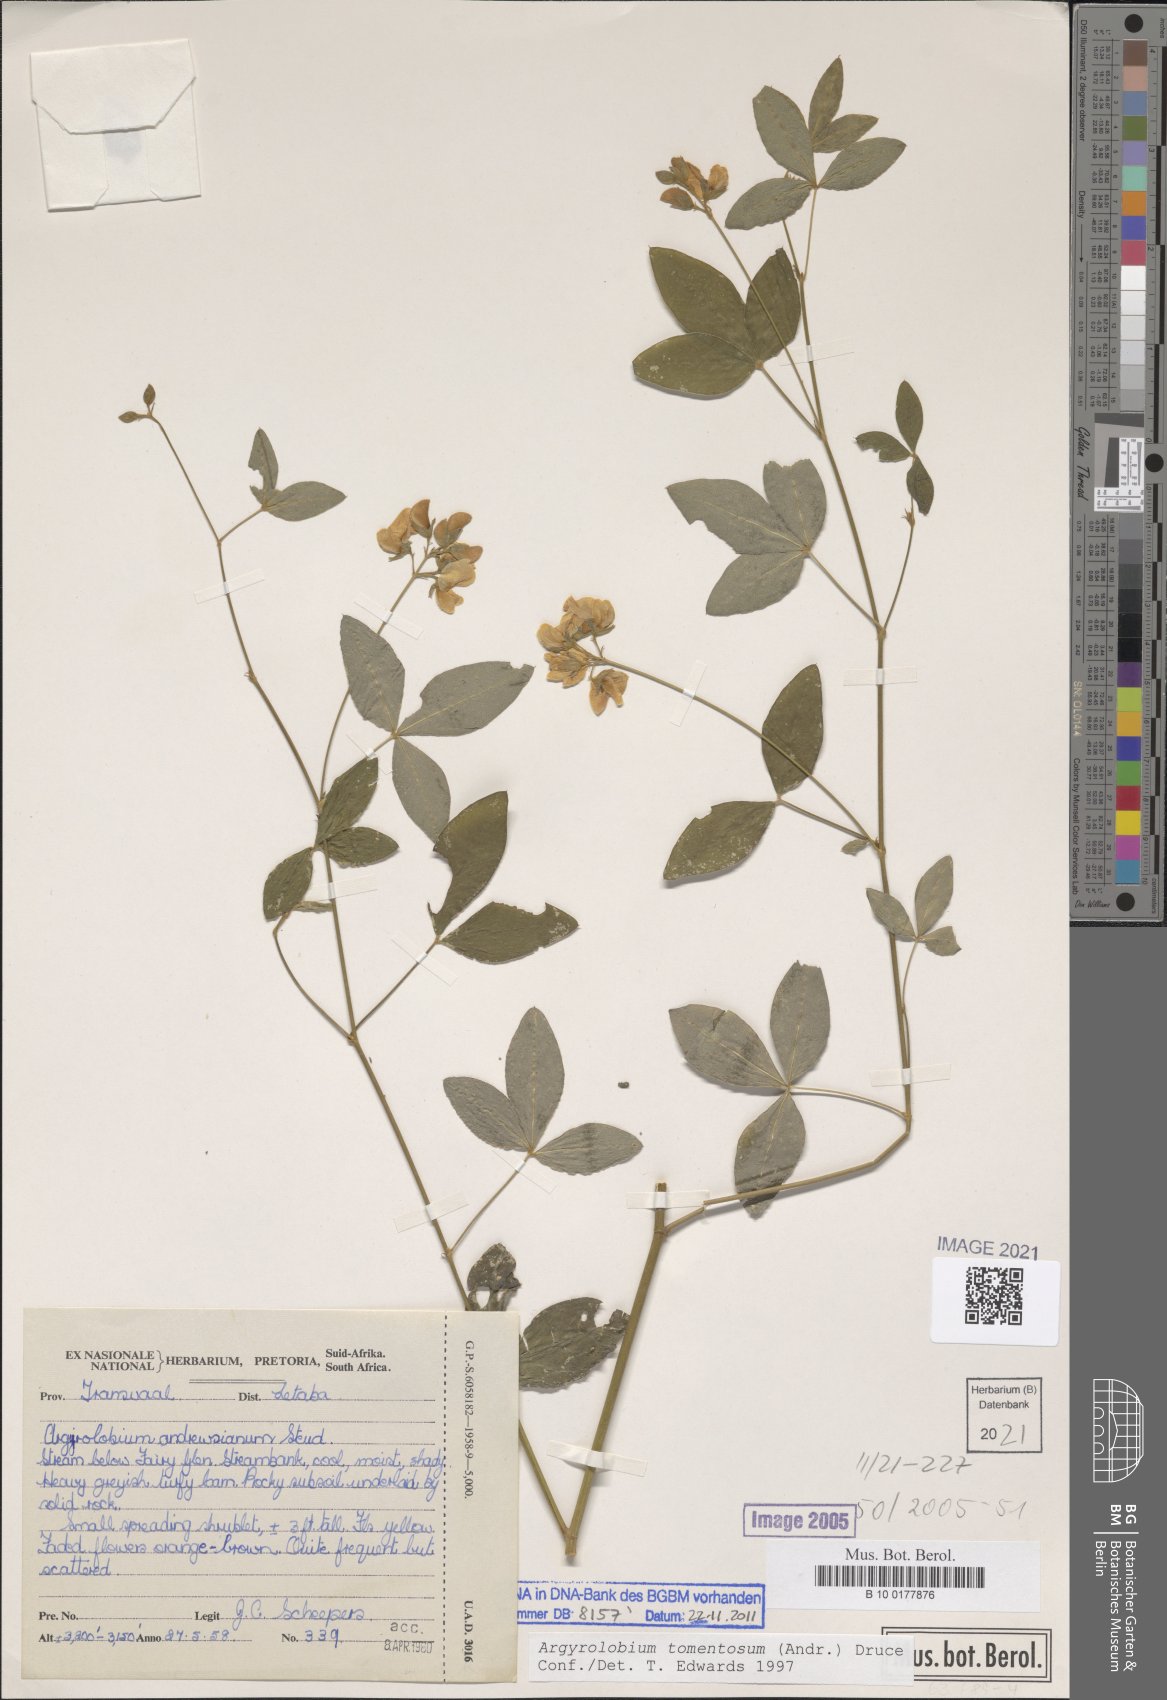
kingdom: Plantae
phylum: Tracheophyta
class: Magnoliopsida
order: Fabales
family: Fabaceae
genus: Argyrolobium
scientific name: Argyrolobium tomentosum
